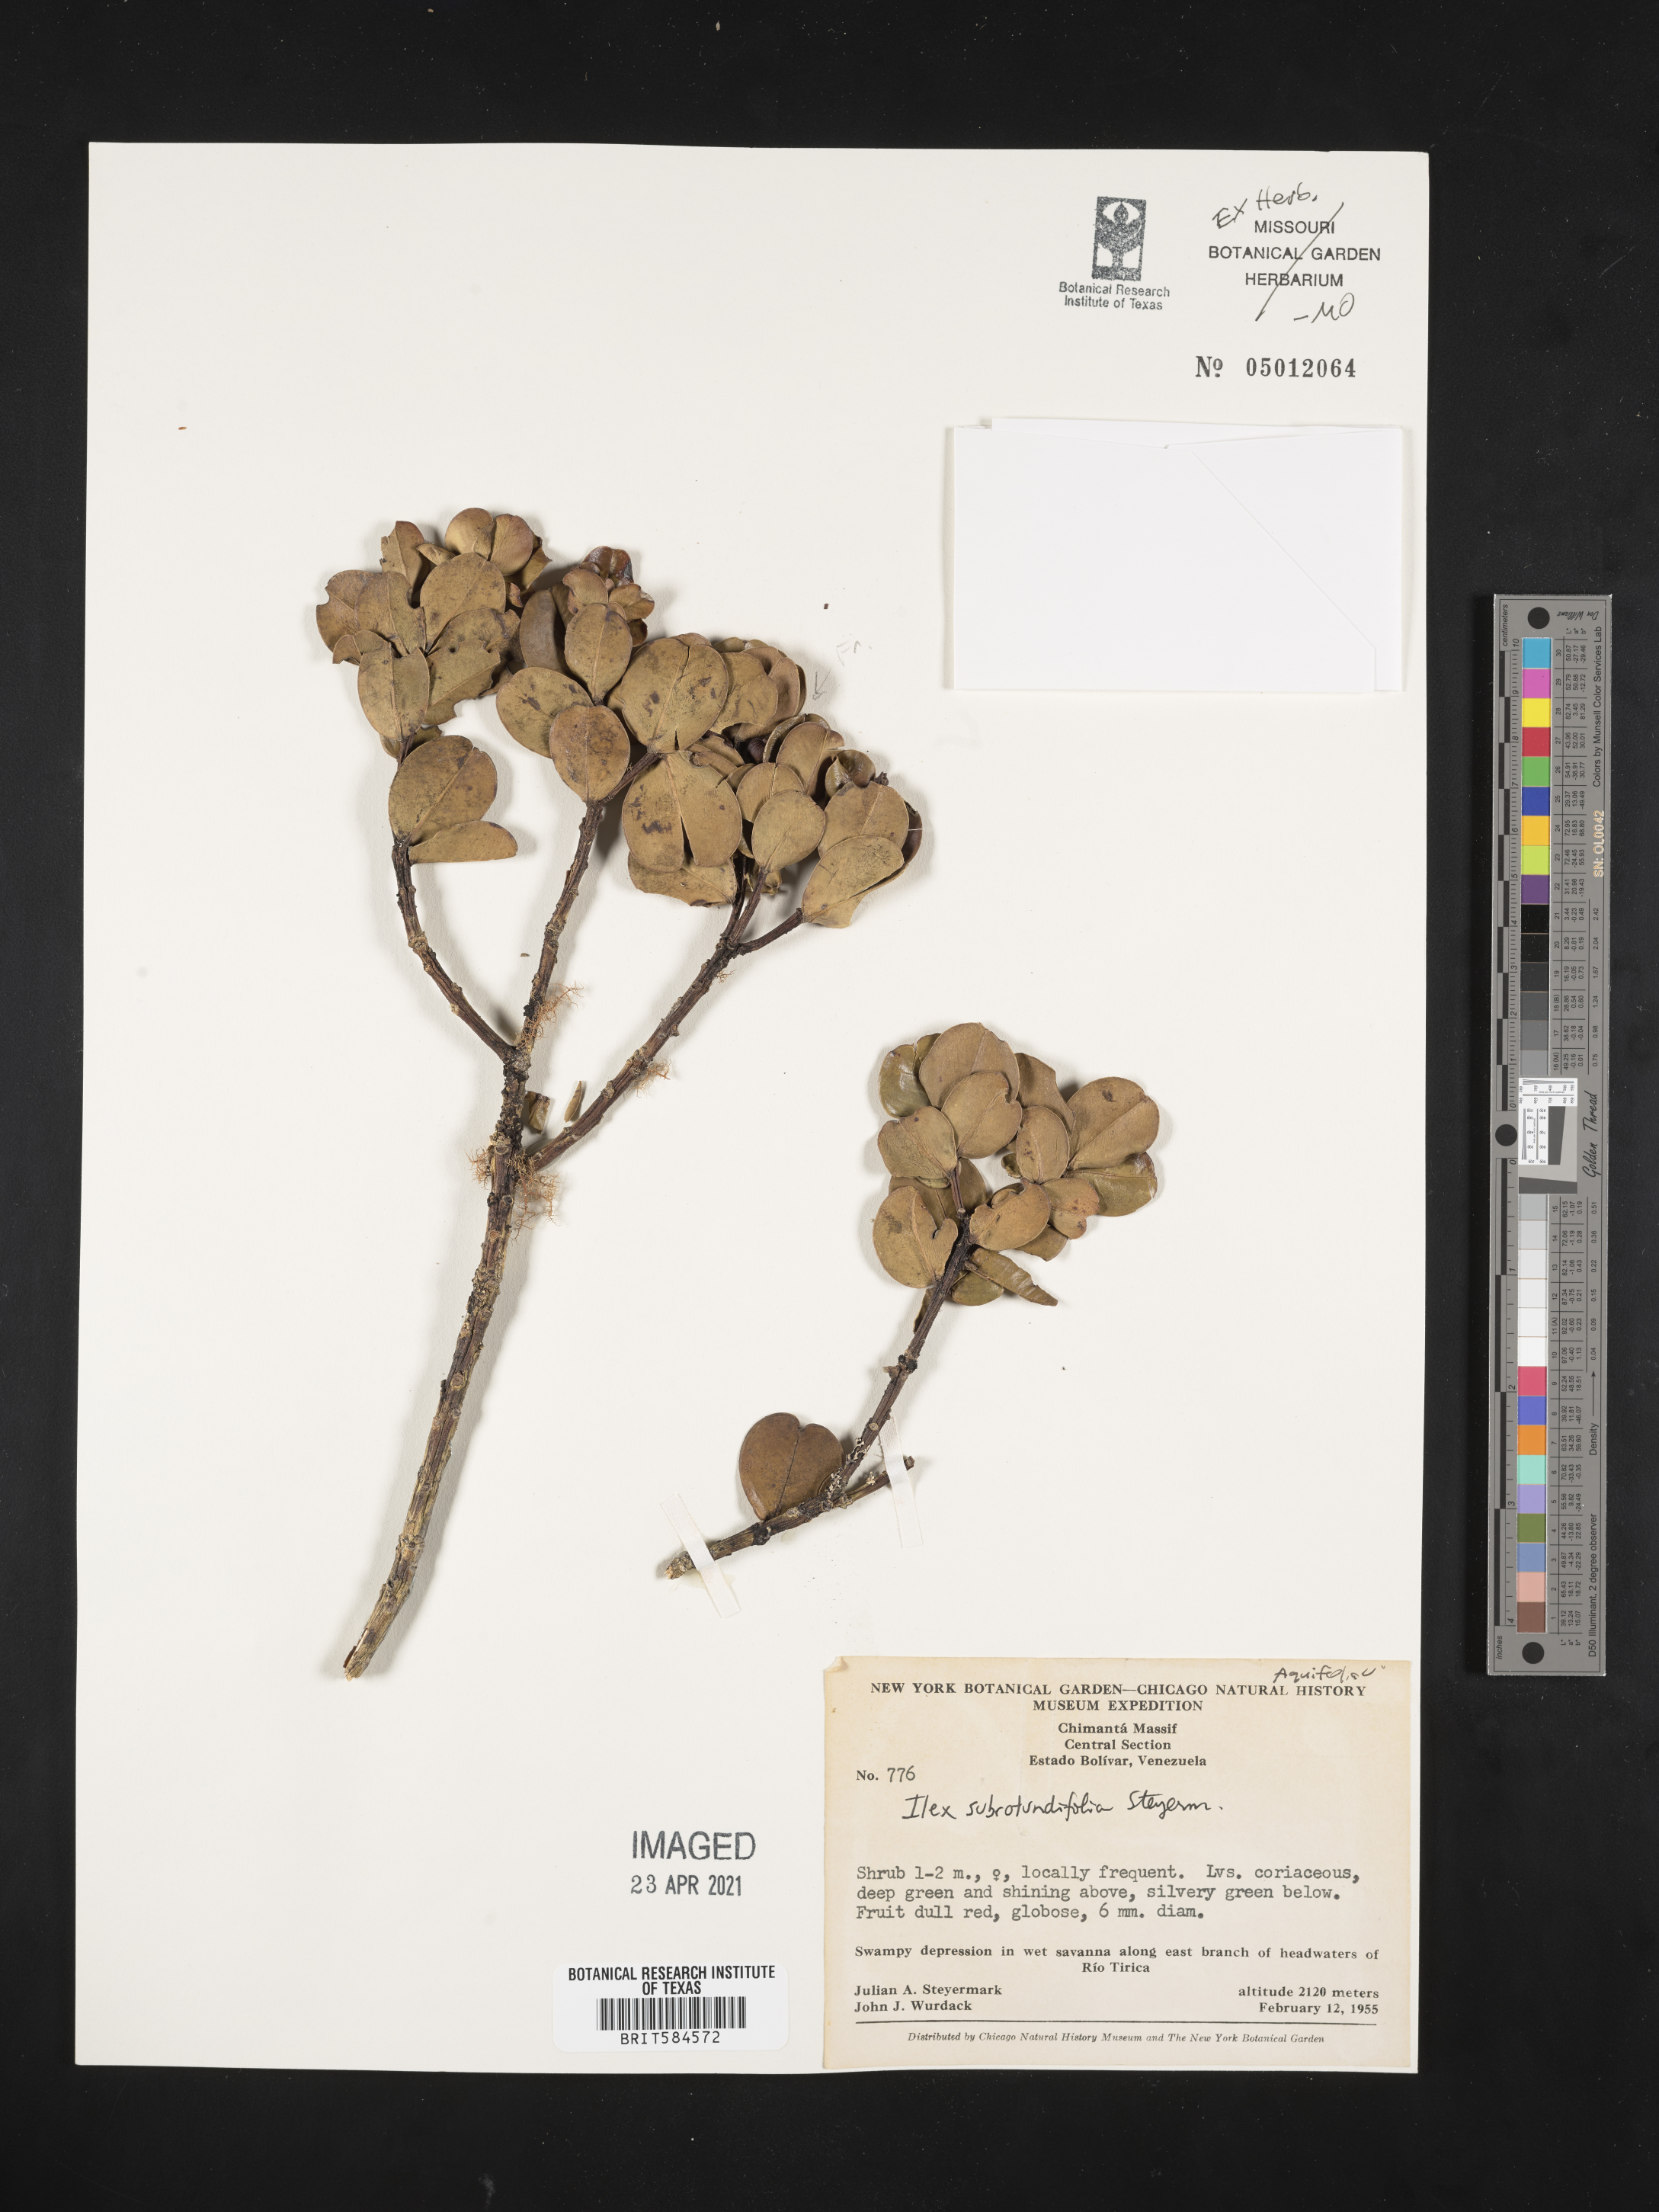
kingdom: Plantae
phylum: Tracheophyta
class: Magnoliopsida
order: Aquifoliales
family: Aquifoliaceae
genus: Ilex
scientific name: Ilex subrotundifolia
